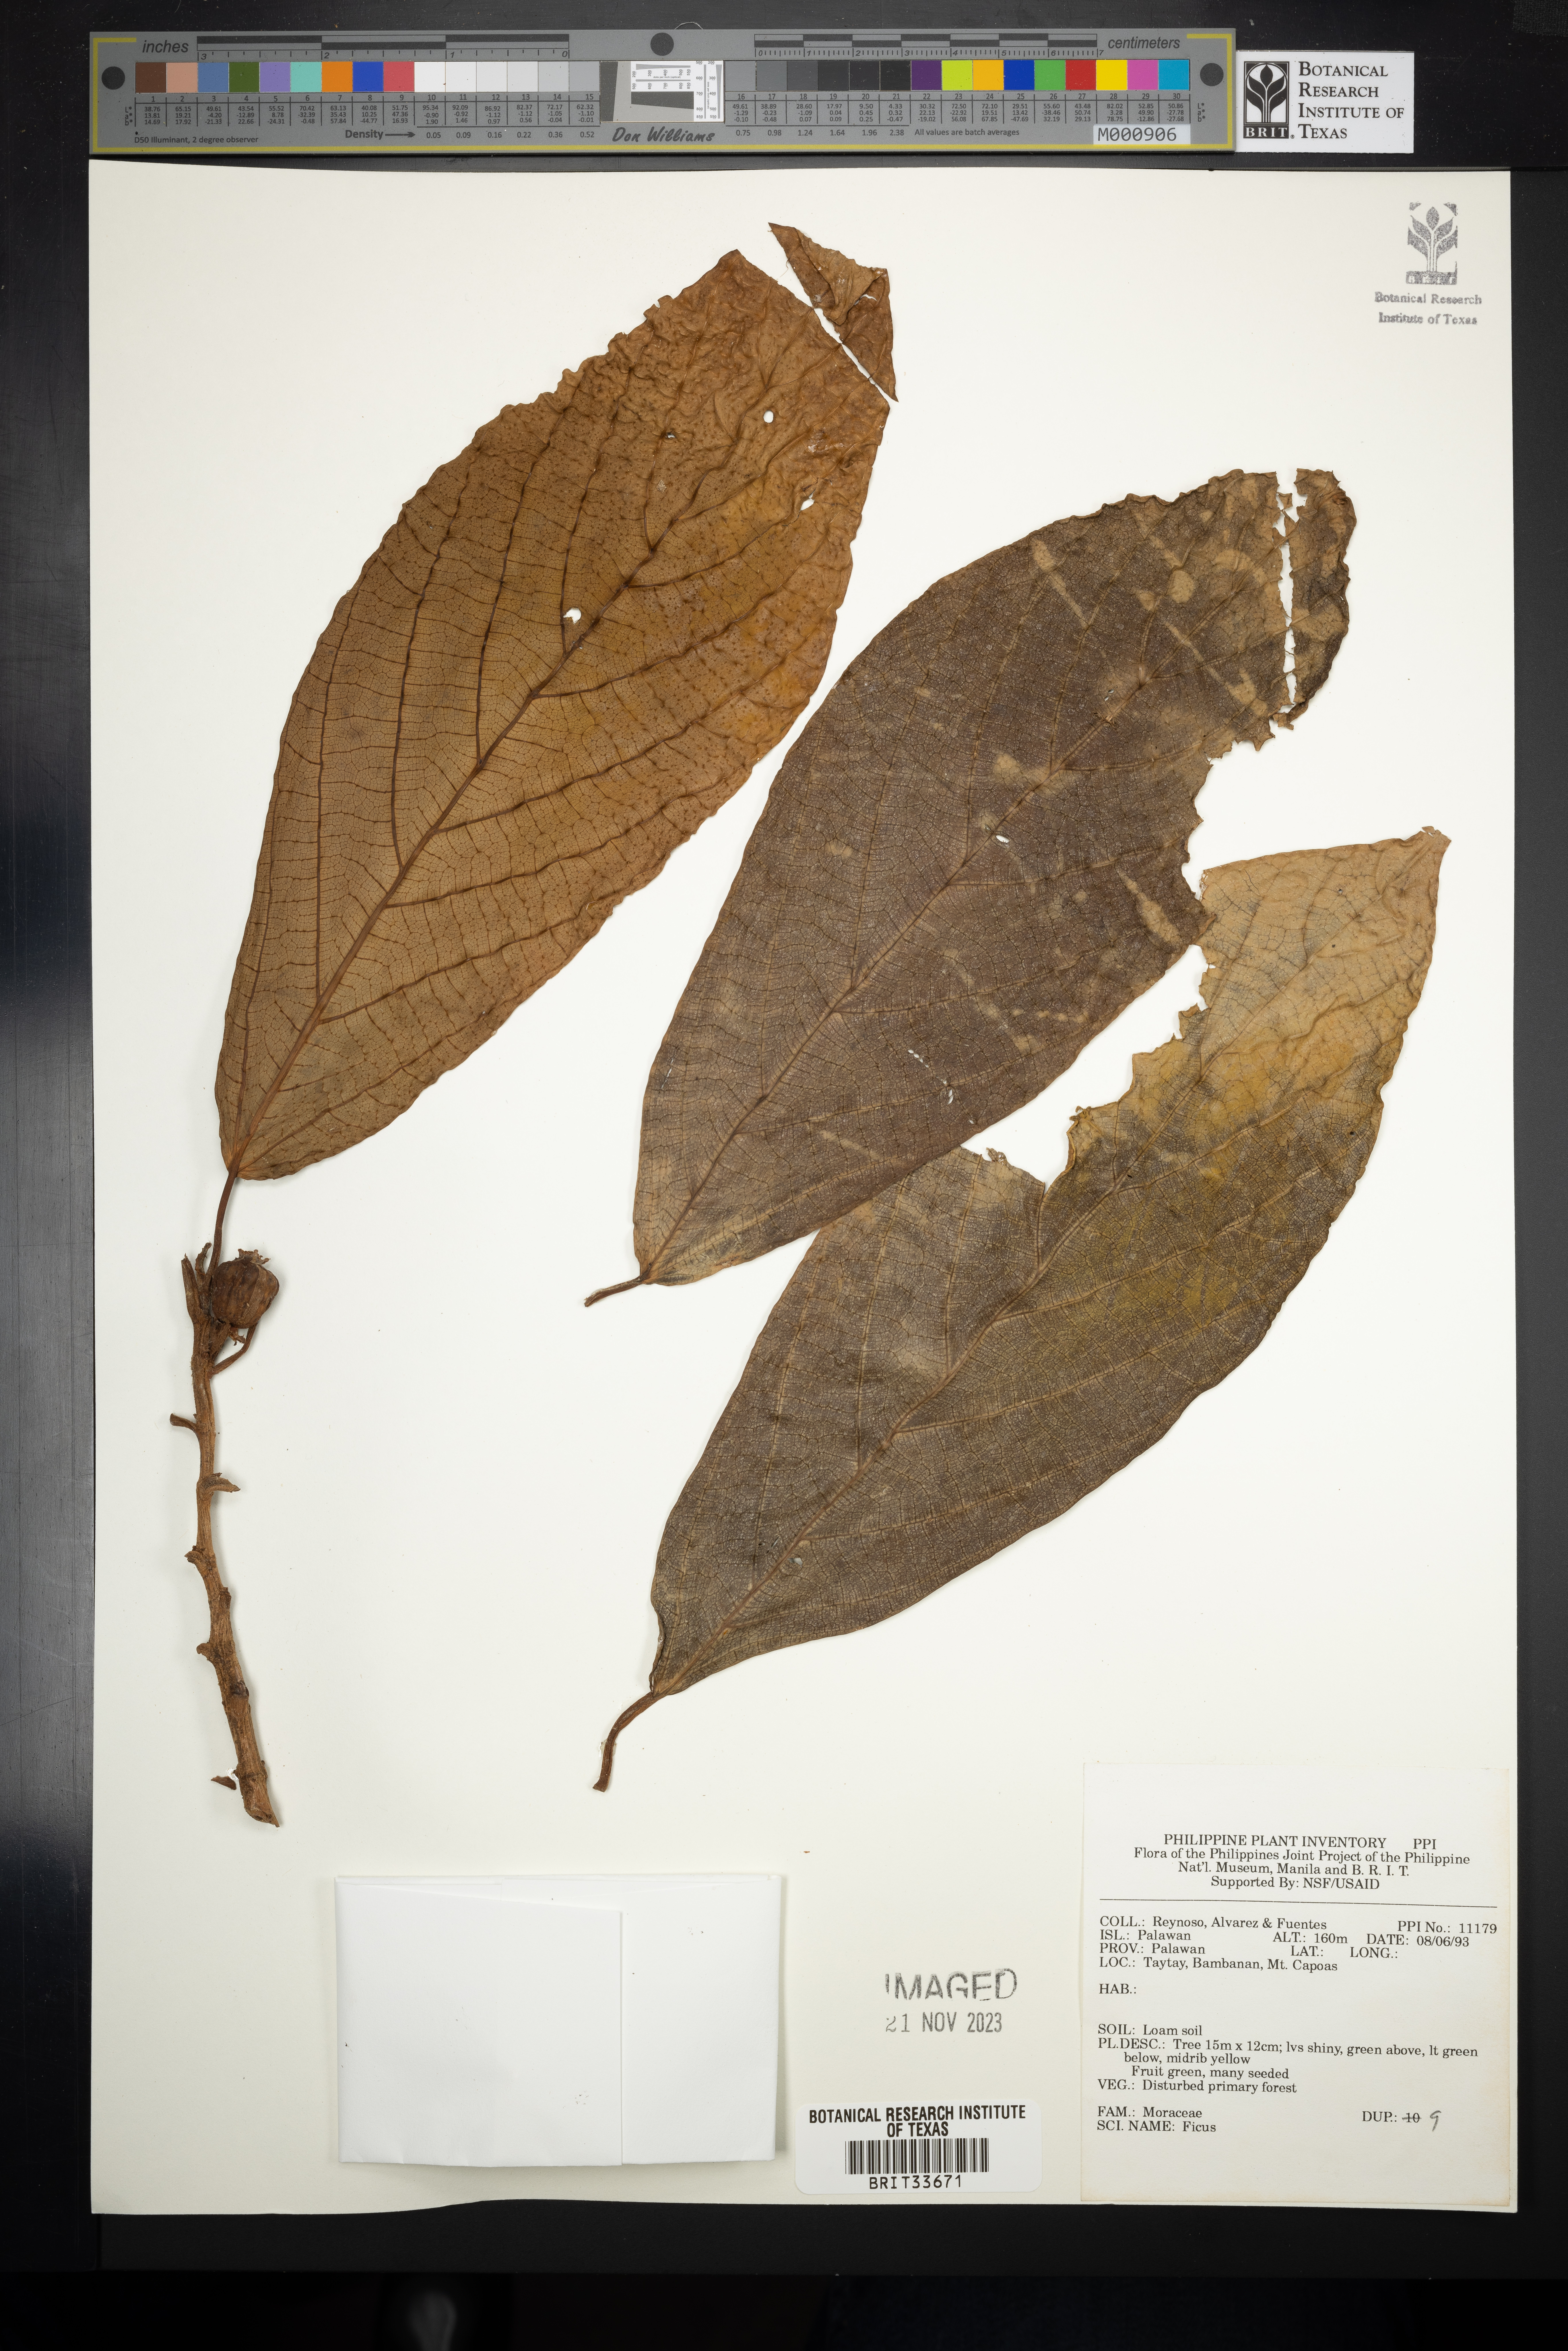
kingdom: Plantae
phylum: Tracheophyta
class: Magnoliopsida
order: Rosales
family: Moraceae
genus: Ficus
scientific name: Ficus
